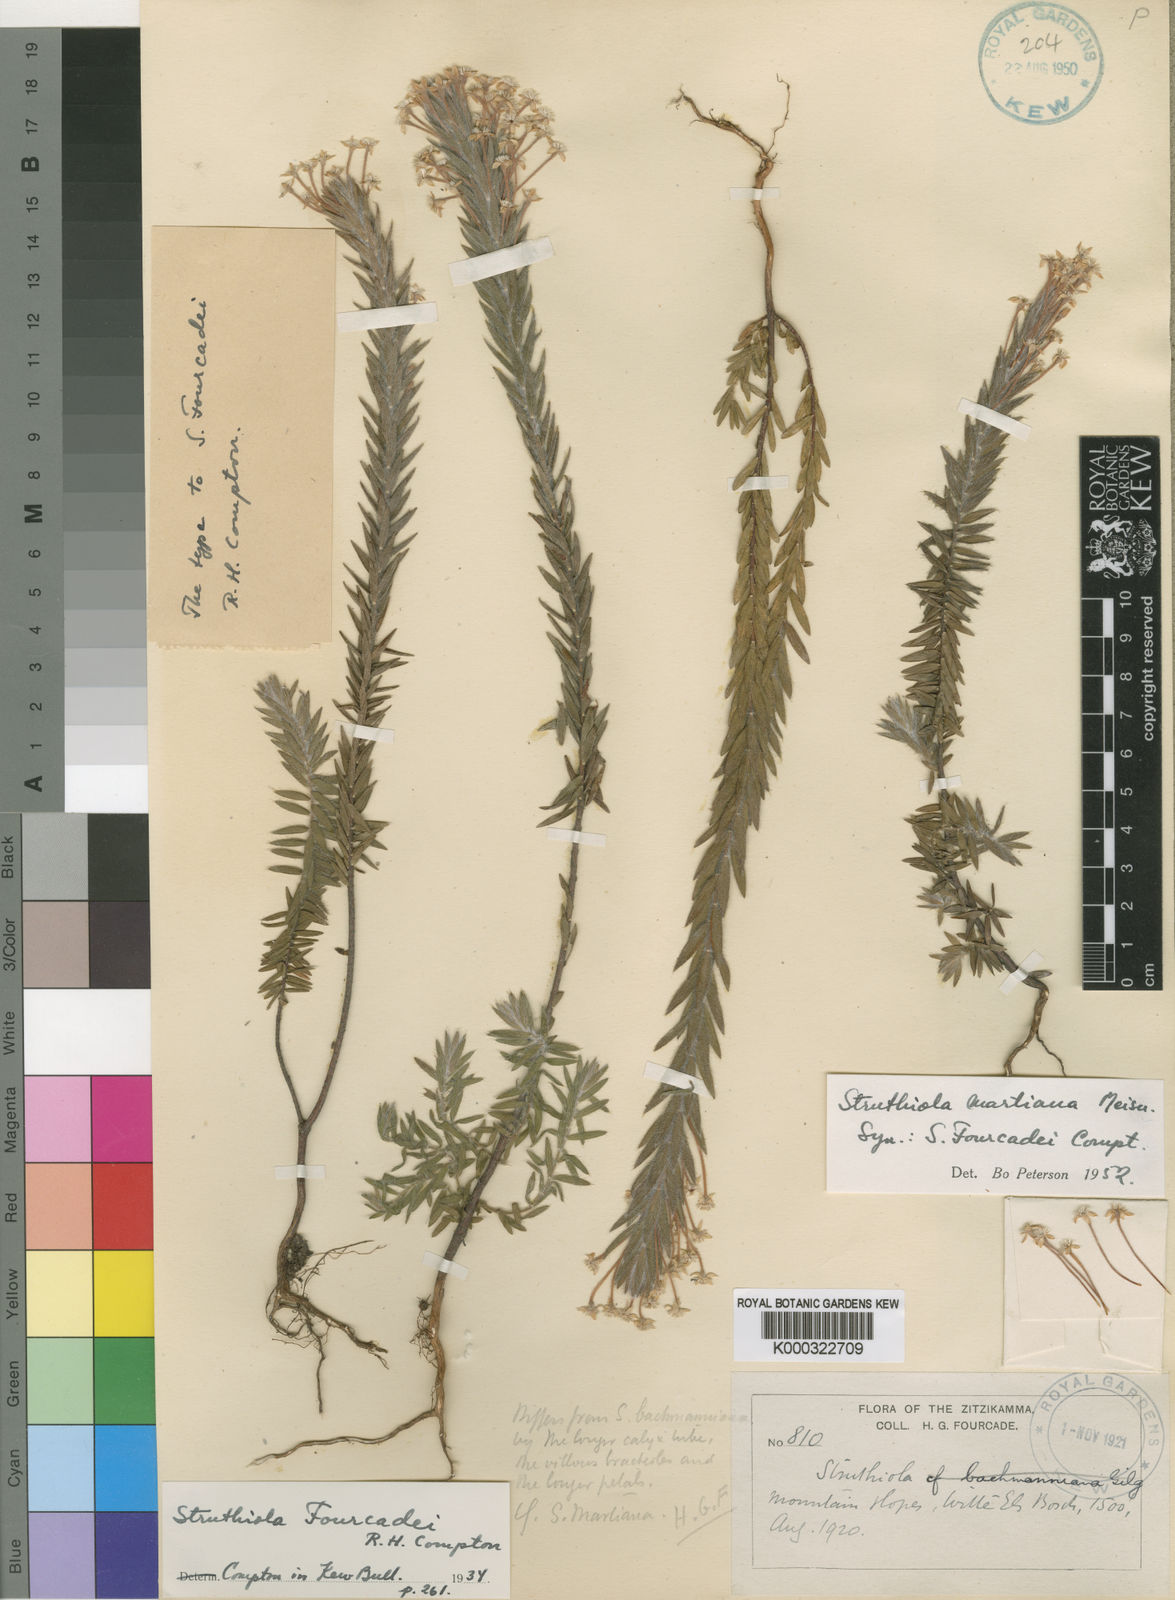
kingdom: Plantae
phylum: Tracheophyta
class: Magnoliopsida
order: Malvales
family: Thymelaeaceae
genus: Struthiola
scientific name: Struthiola martiana
